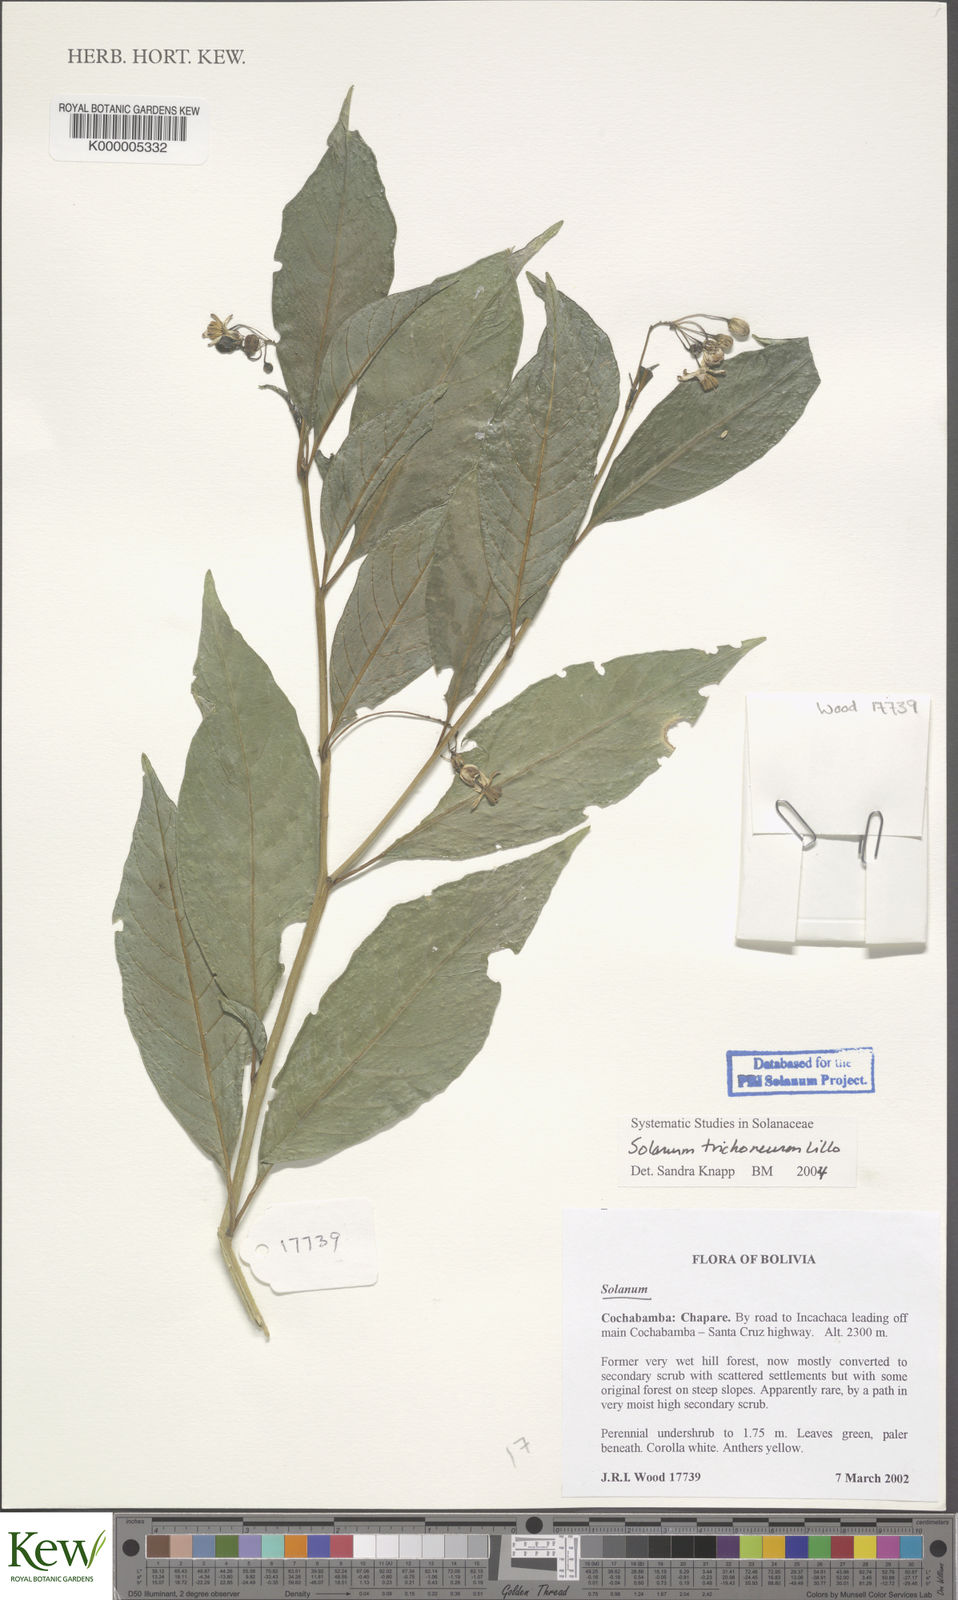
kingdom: Plantae
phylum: Tracheophyta
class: Magnoliopsida
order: Solanales
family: Solanaceae
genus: Solanum
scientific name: Solanum oblongum
